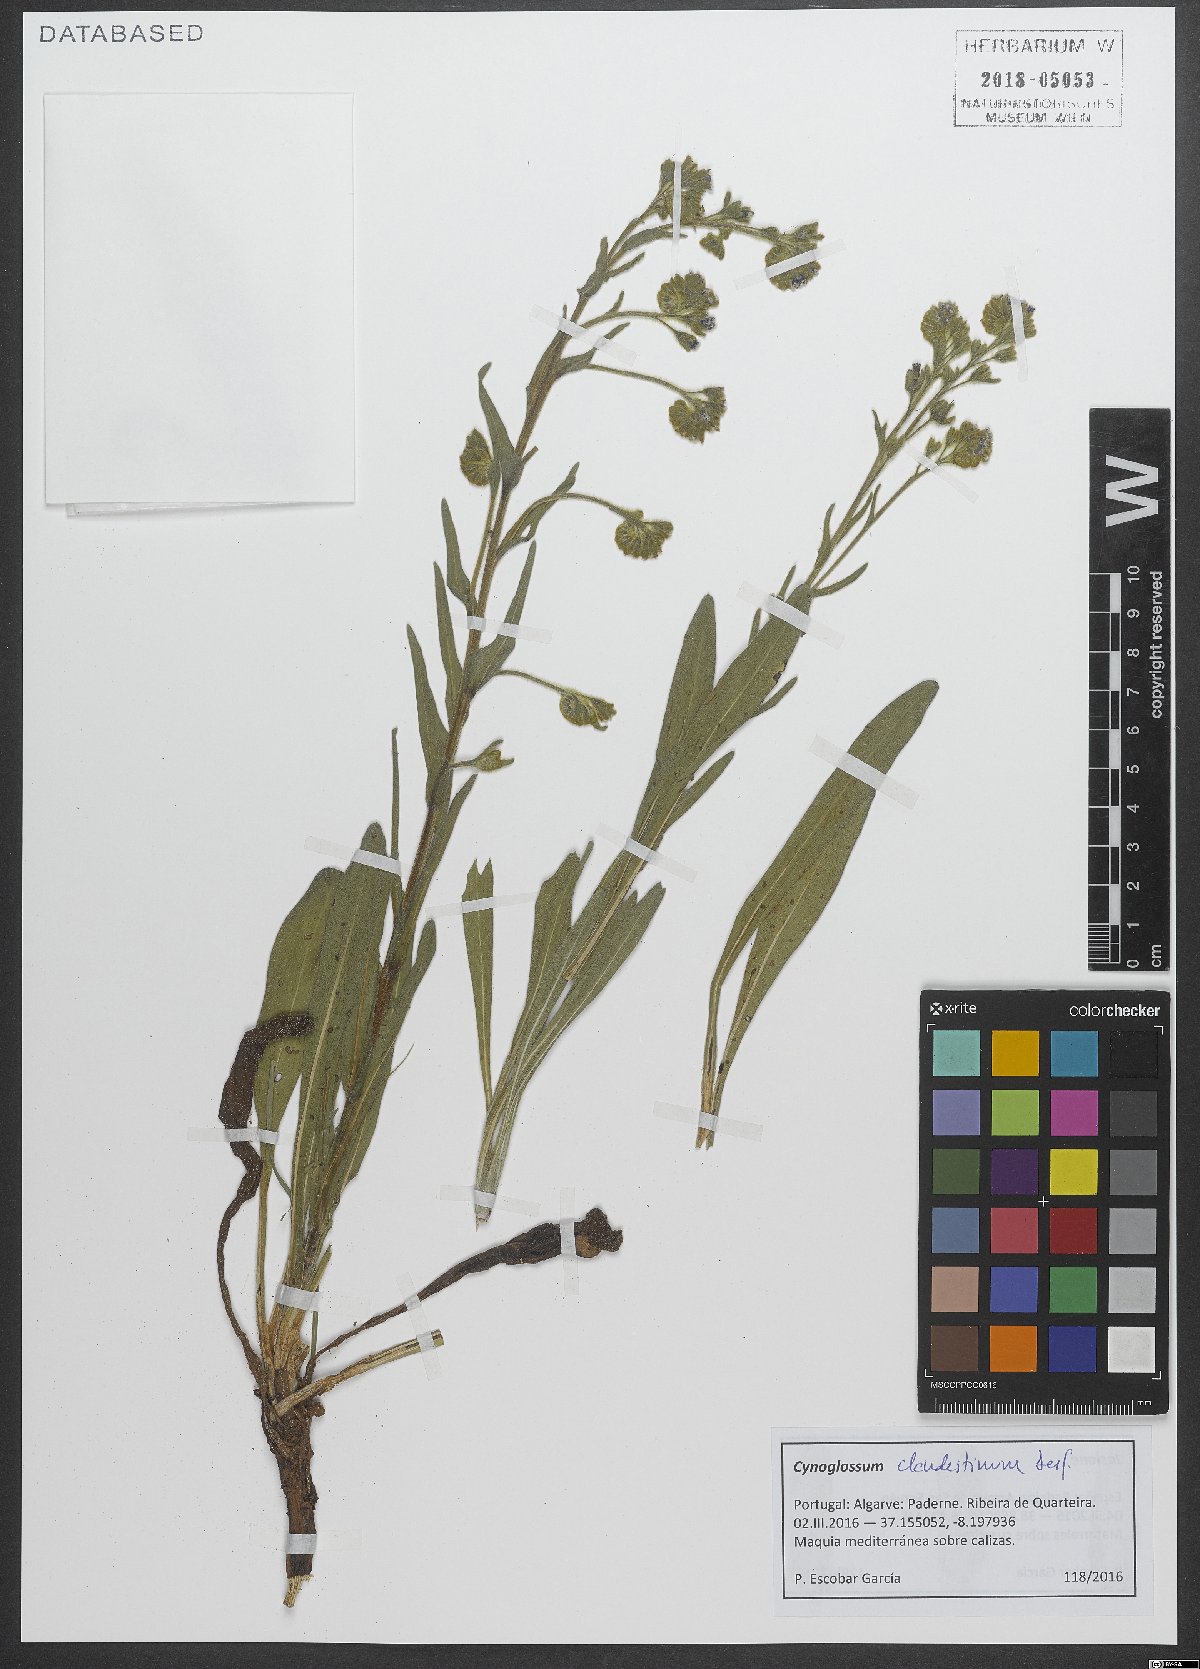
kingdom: Plantae
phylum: Tracheophyta
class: Magnoliopsida
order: Boraginales
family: Boraginaceae
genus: Cynoglossum
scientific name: Cynoglossum clandestinum
